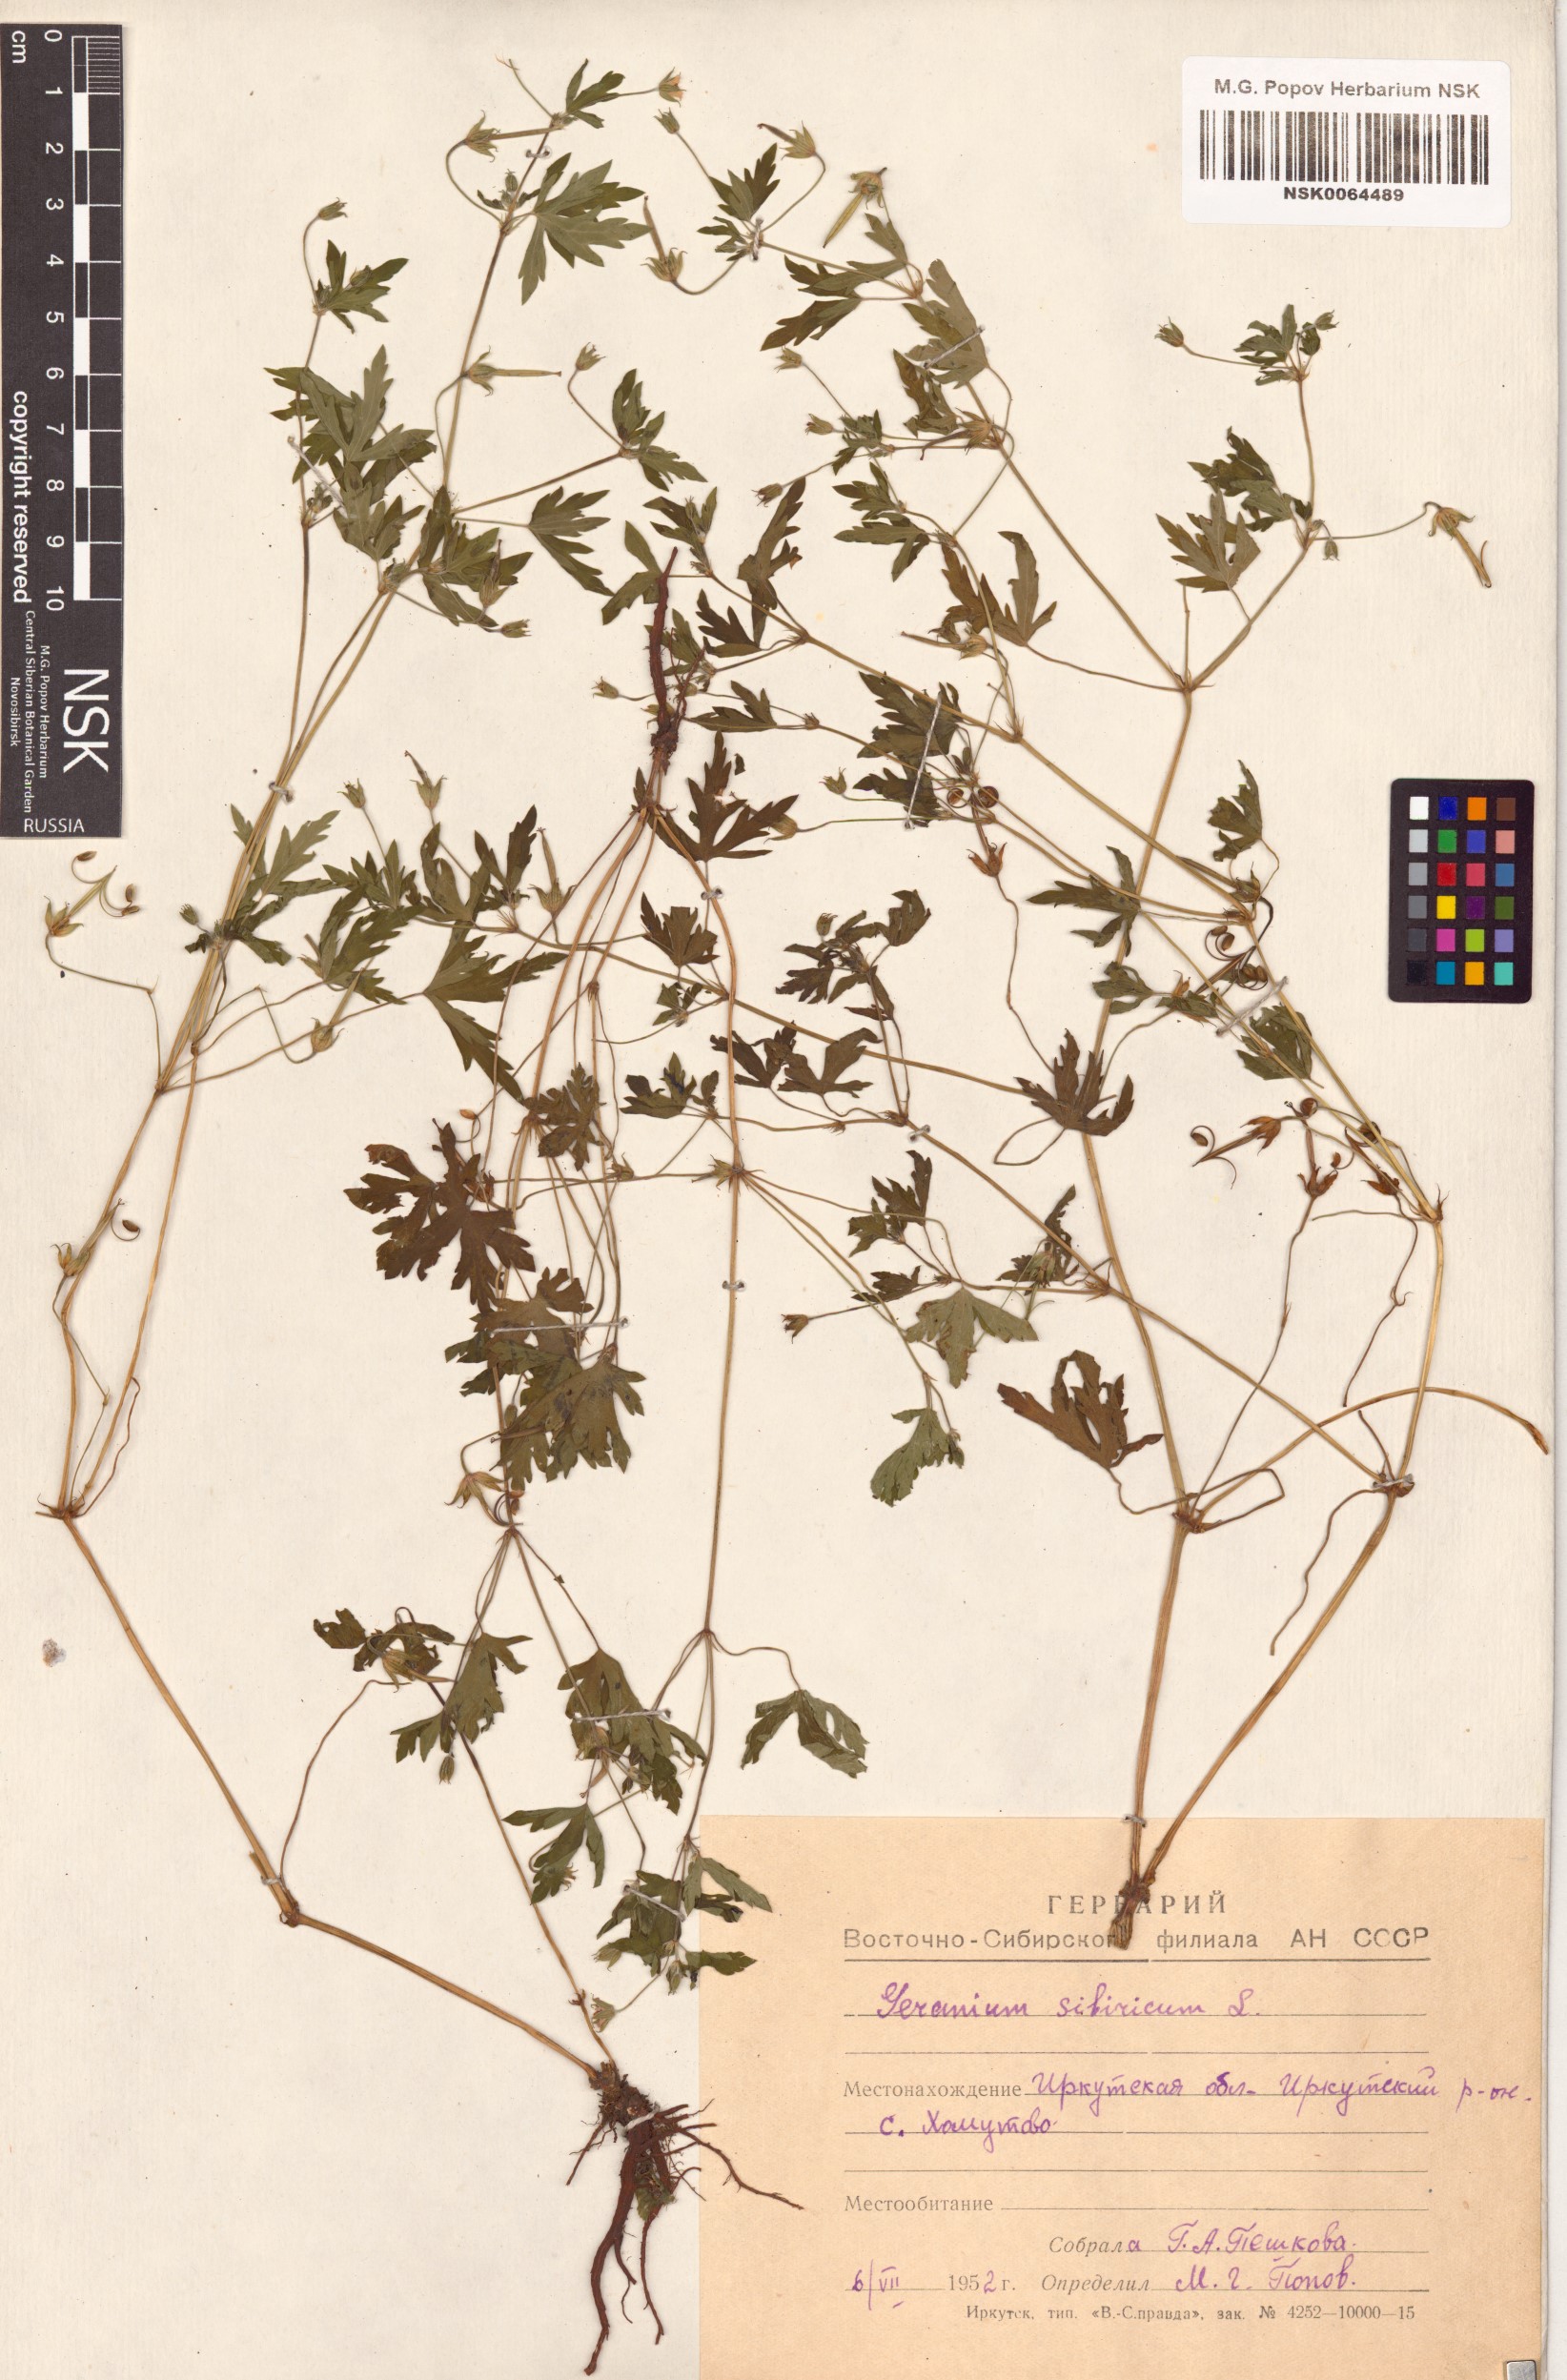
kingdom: Plantae
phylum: Tracheophyta
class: Magnoliopsida
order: Geraniales
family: Geraniaceae
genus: Geranium
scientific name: Geranium sibiricum
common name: Siberian crane's-bill
